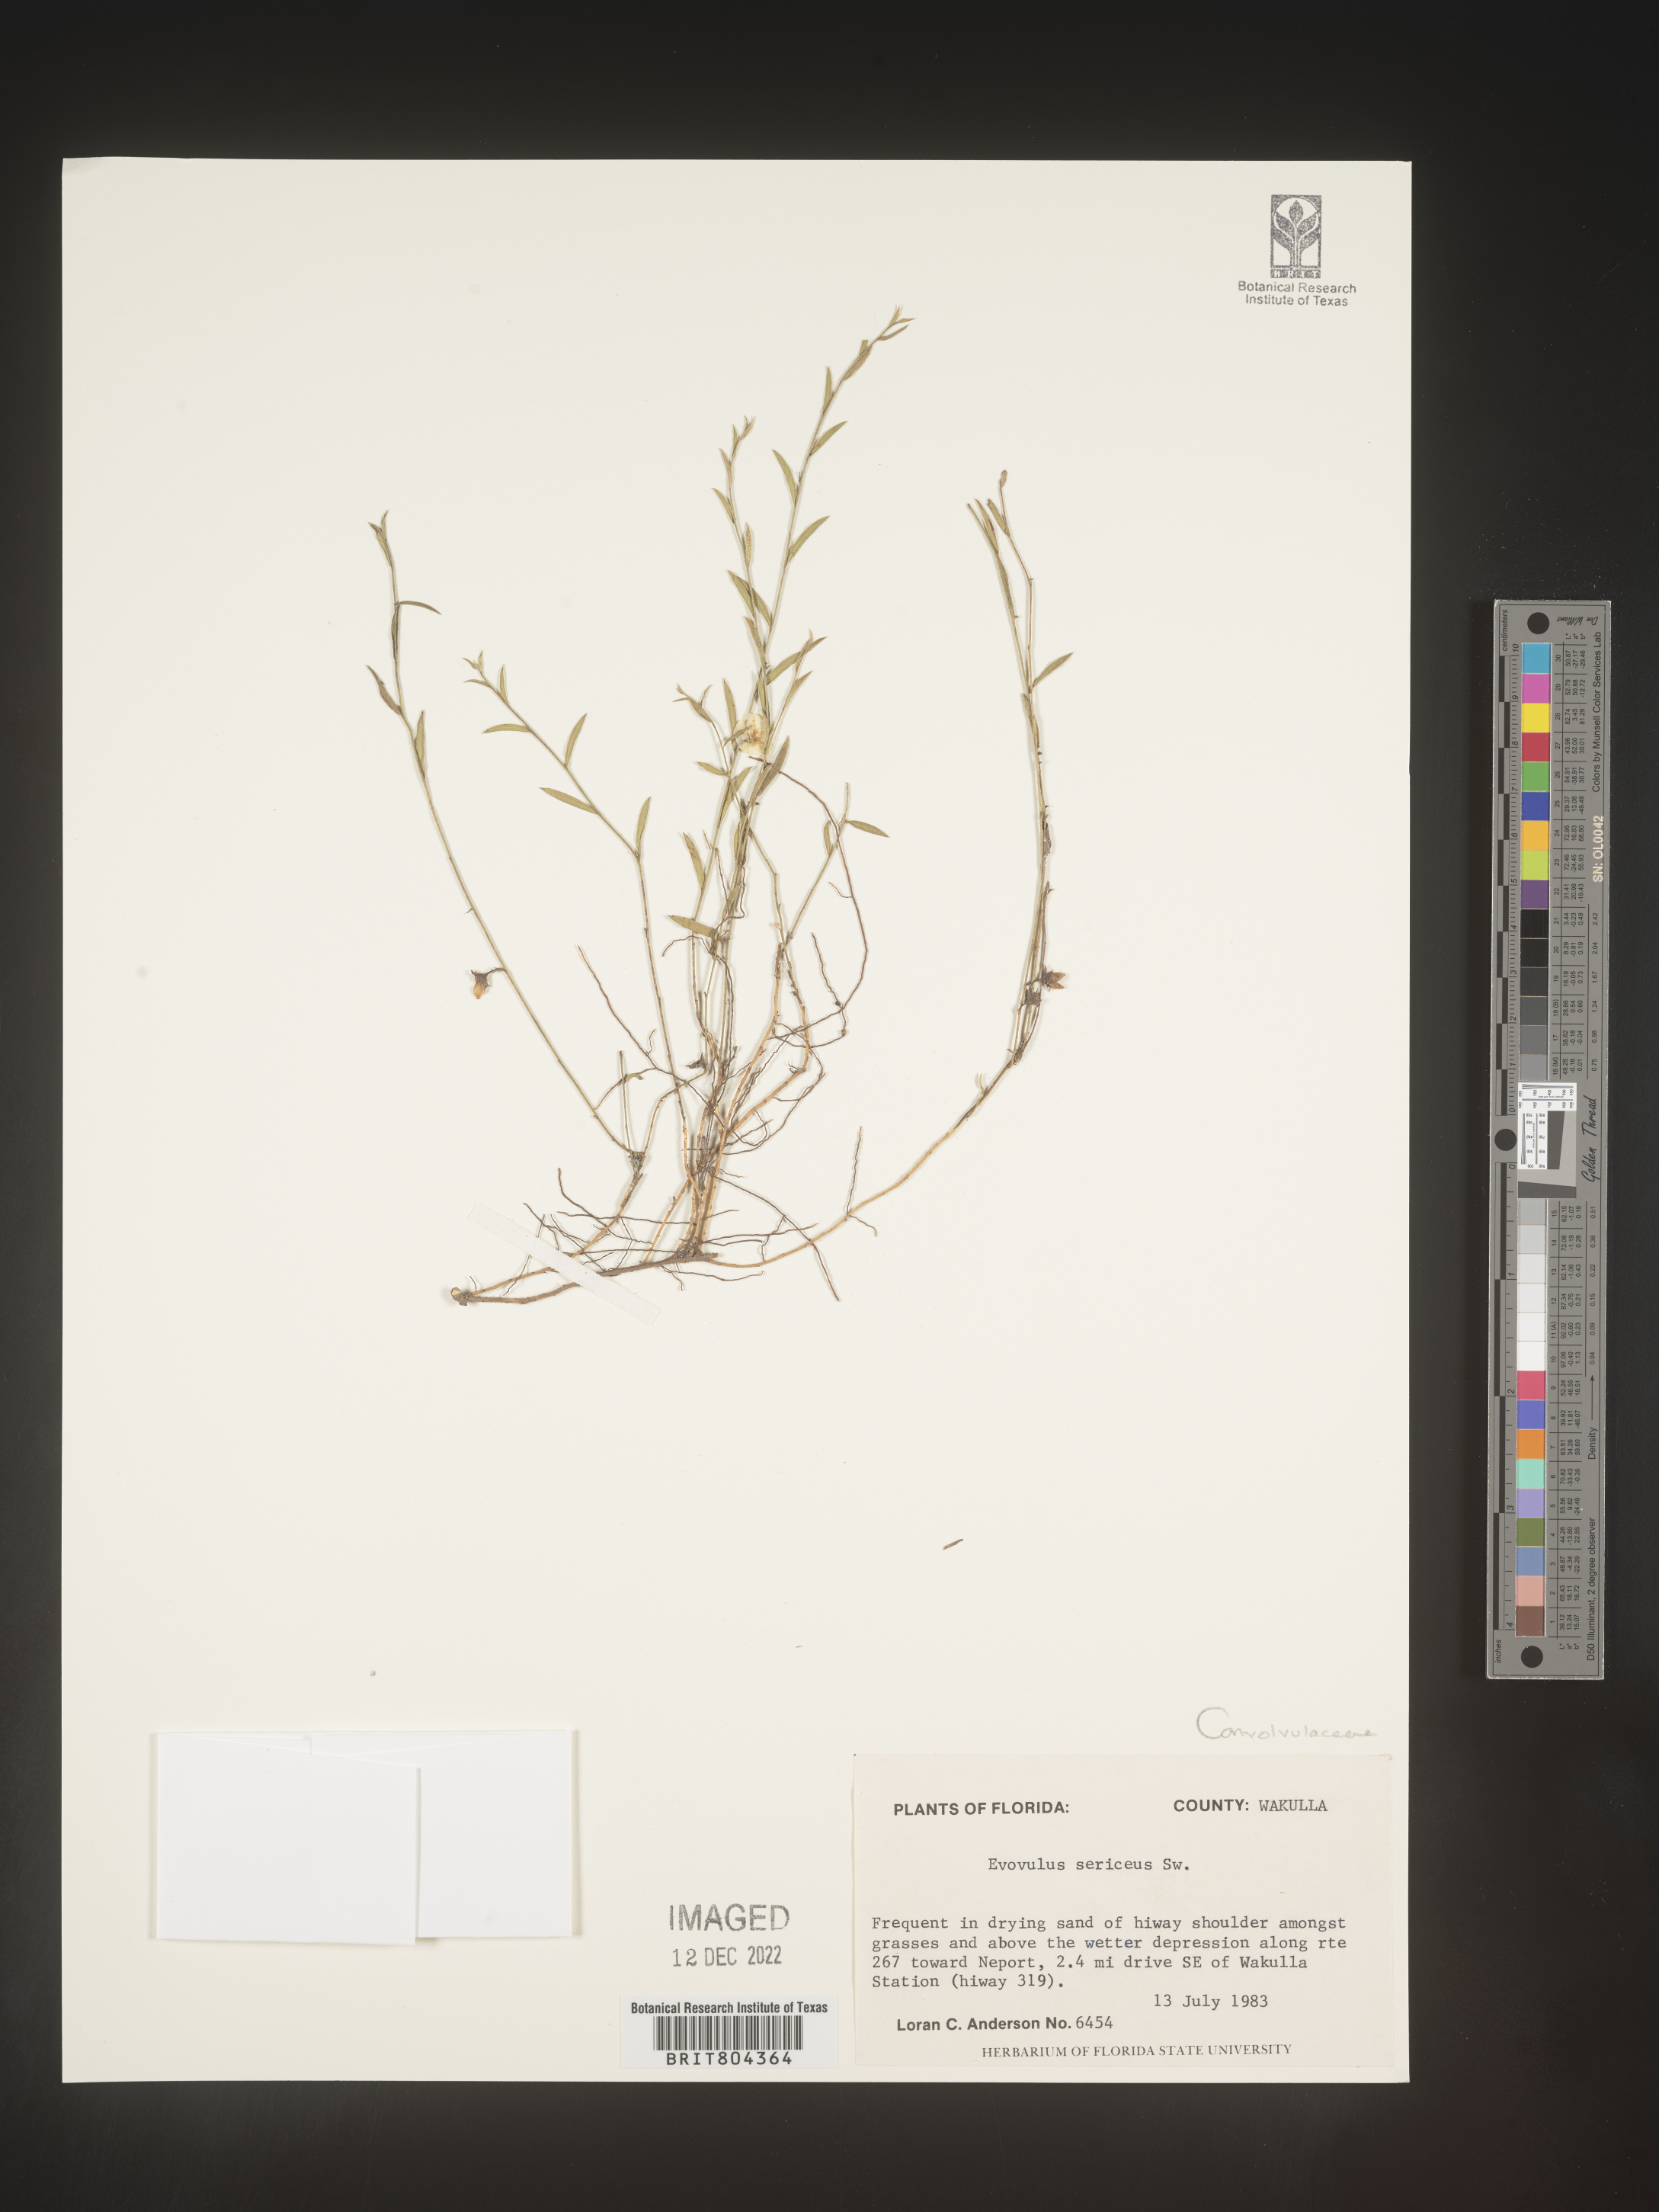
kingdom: Plantae
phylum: Tracheophyta
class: Magnoliopsida
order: Solanales
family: Convolvulaceae
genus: Evolvulus
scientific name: Evolvulus sericeus
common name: Blue dots
